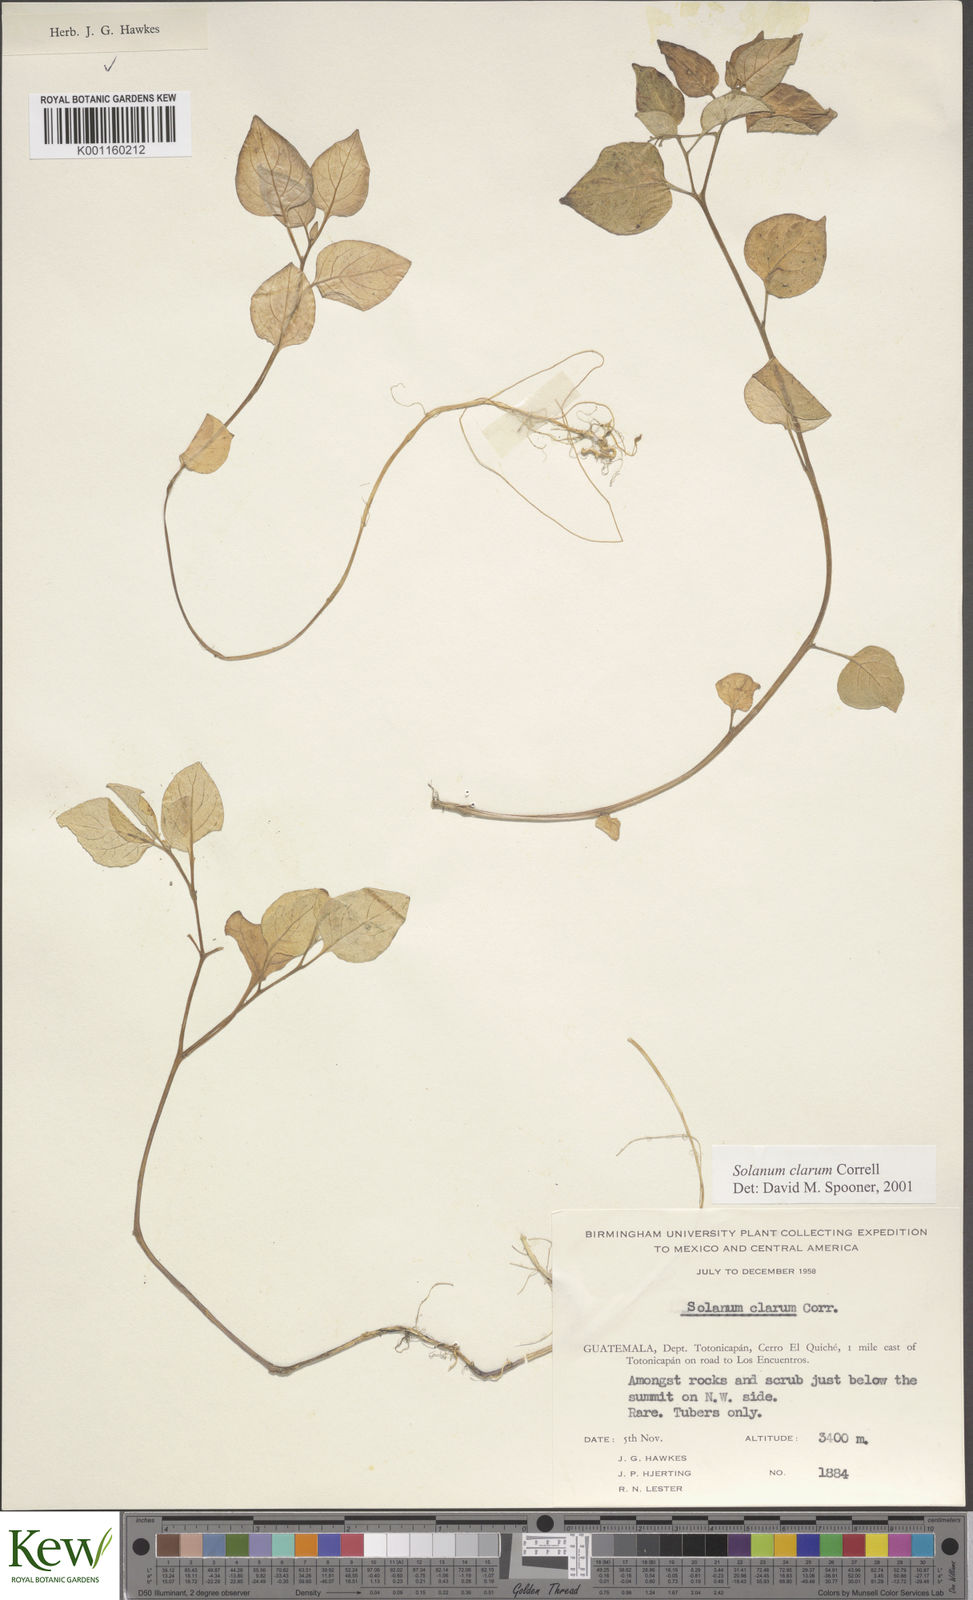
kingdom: Plantae
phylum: Tracheophyta
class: Magnoliopsida
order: Solanales
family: Solanaceae
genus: Solanum
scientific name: Solanum clarum
